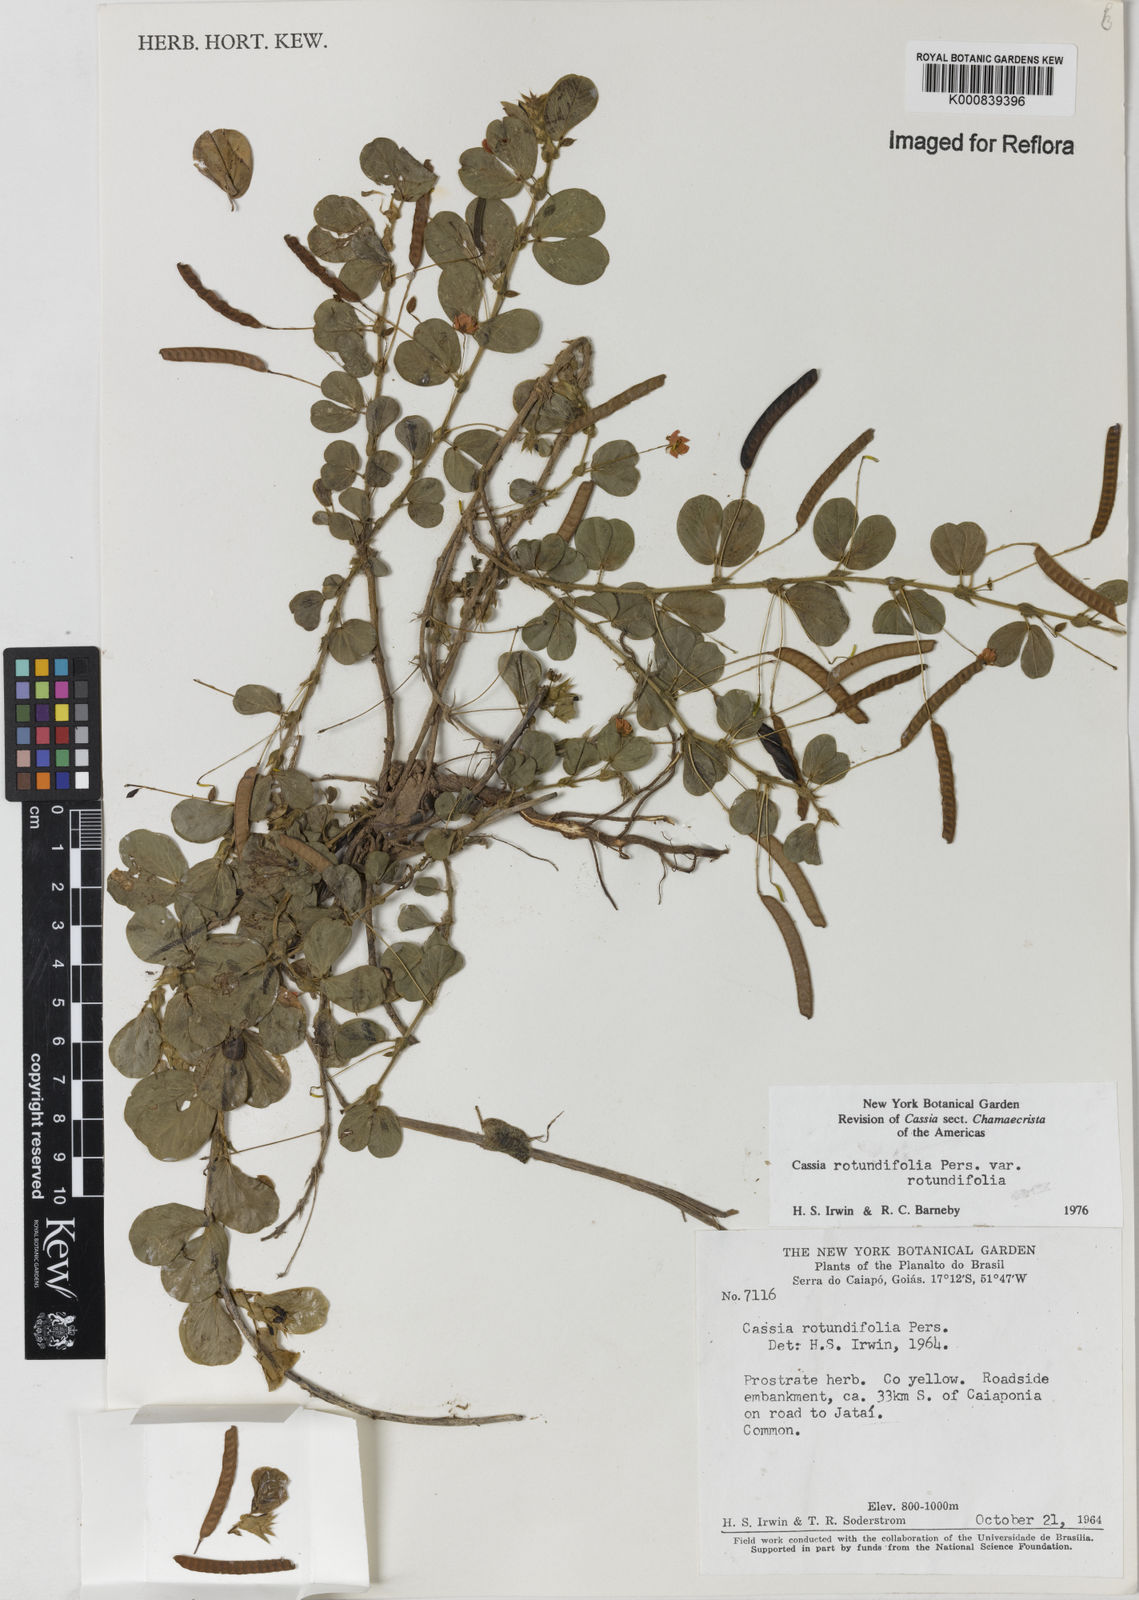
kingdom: Plantae
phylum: Tracheophyta
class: Magnoliopsida
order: Fabales
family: Fabaceae
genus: Chamaecrista
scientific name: Chamaecrista rotundifolia
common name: Round-leaf cassia
